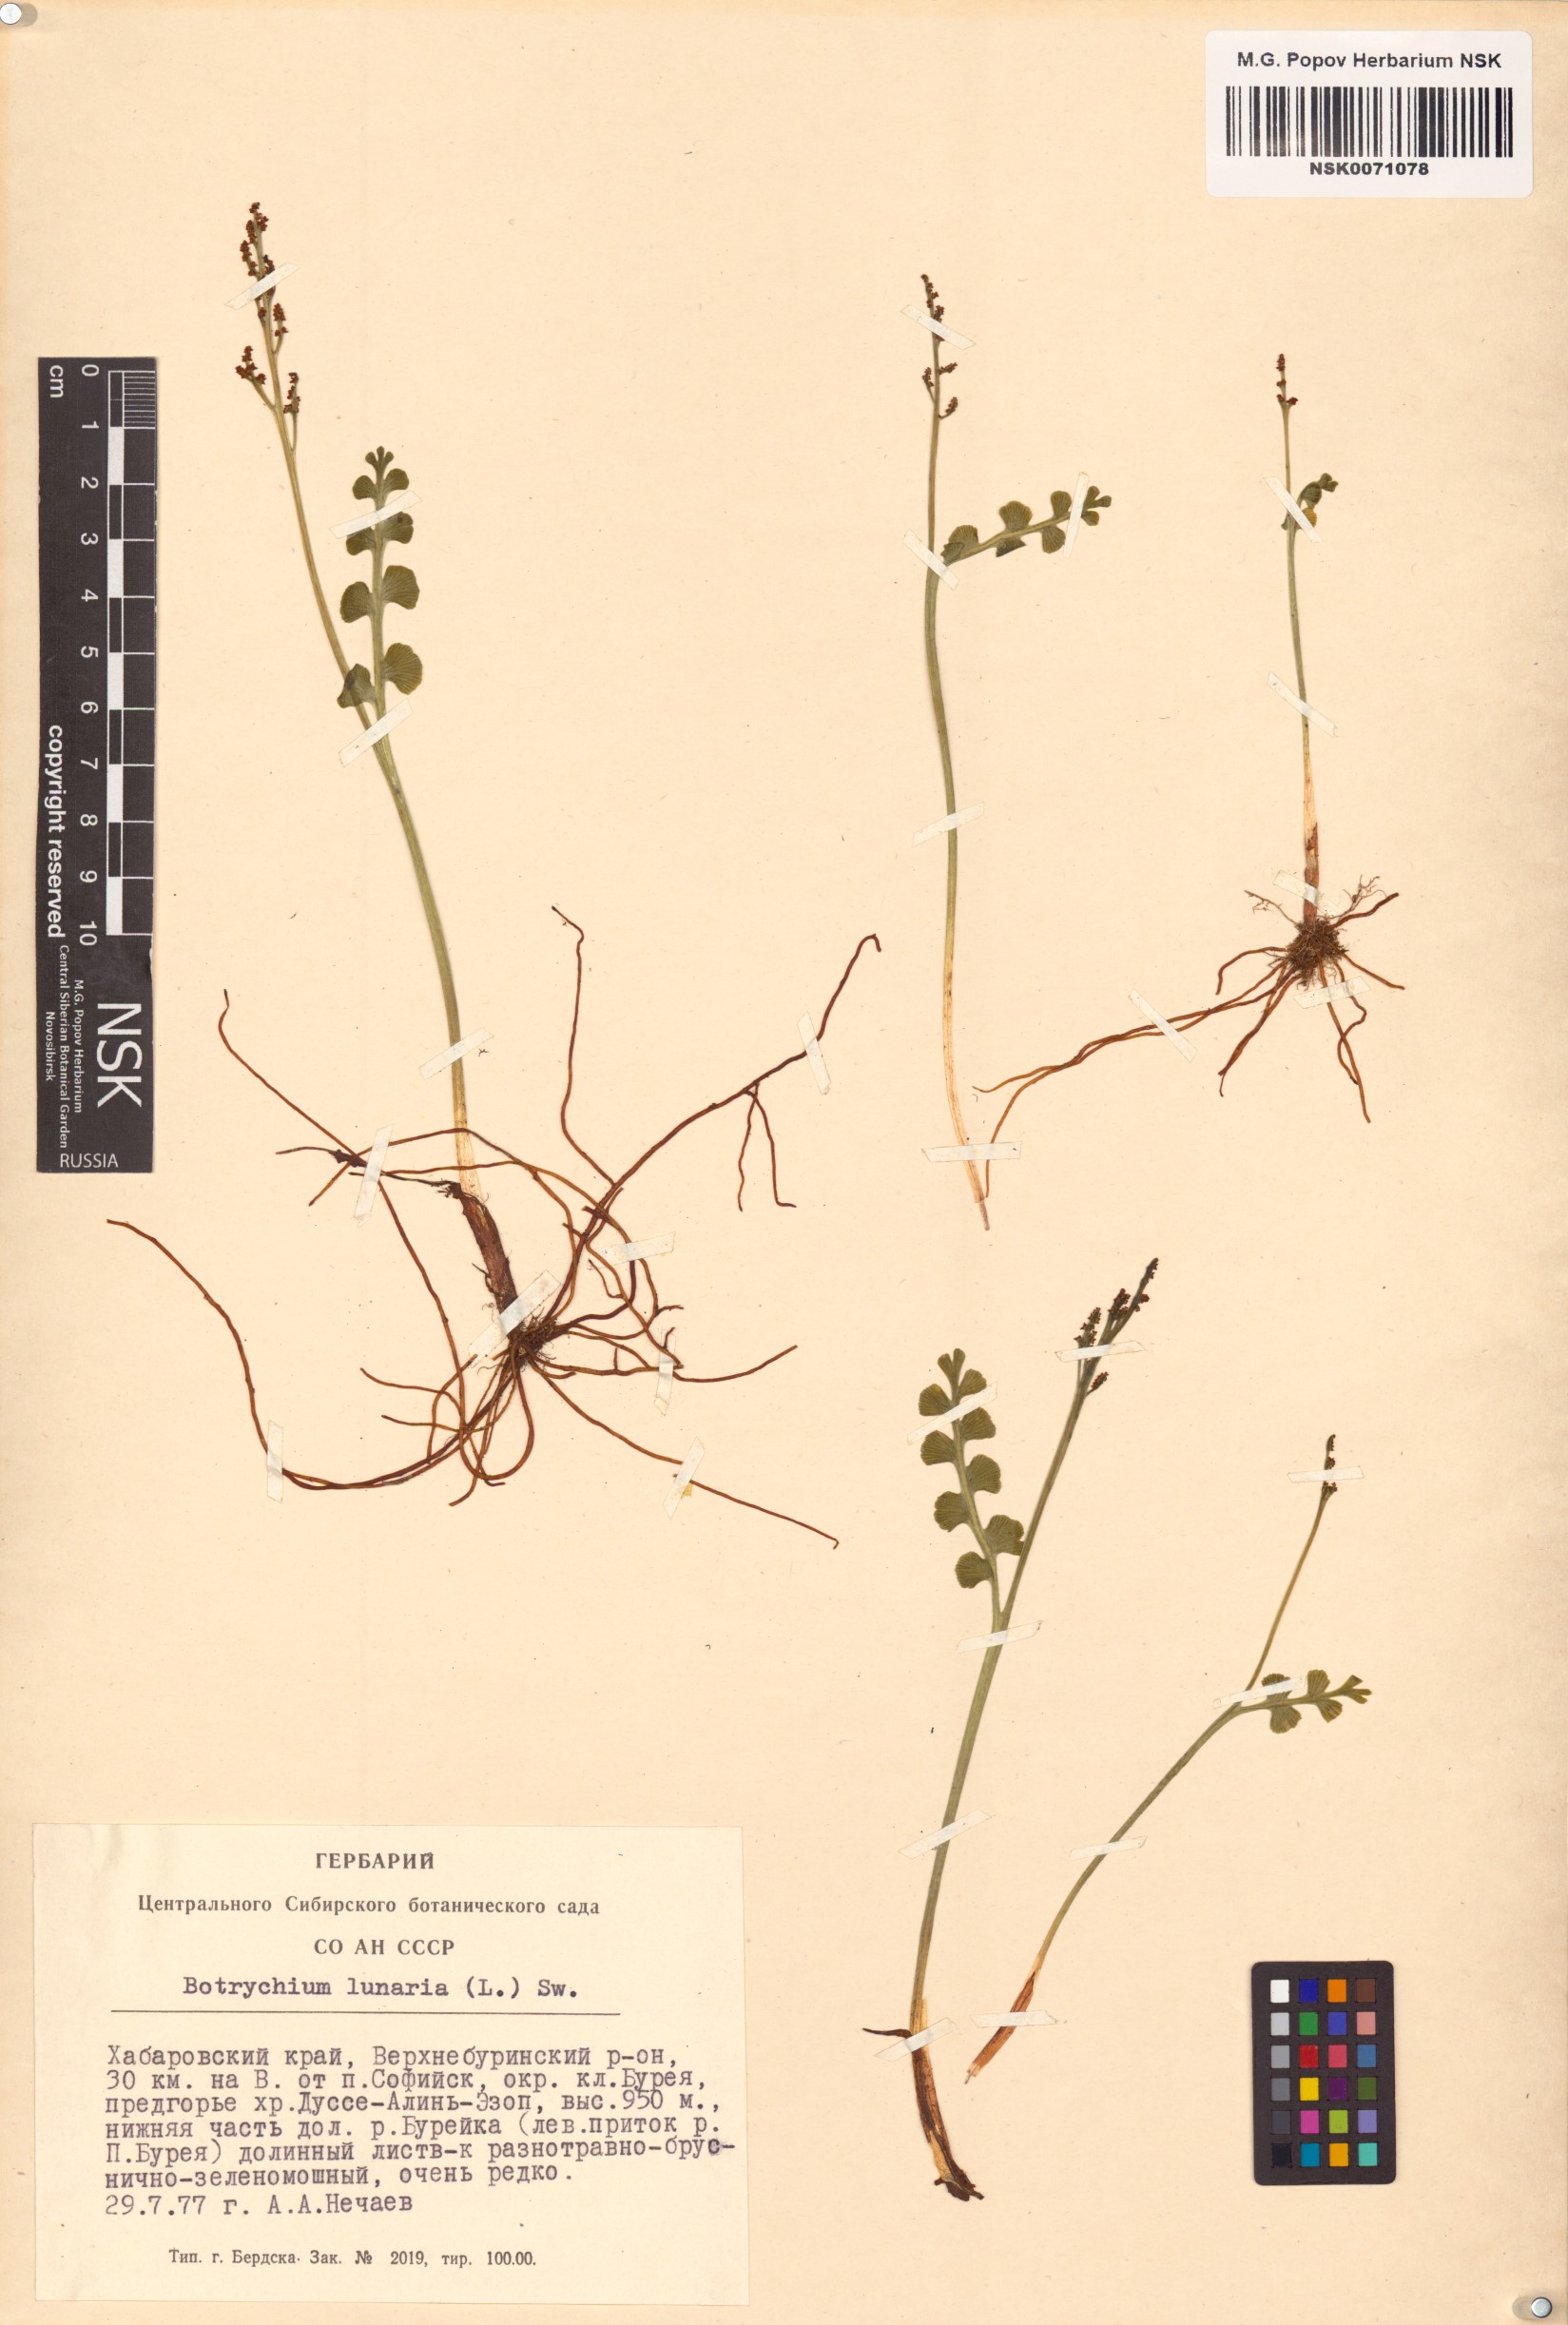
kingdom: Plantae
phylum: Tracheophyta
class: Polypodiopsida
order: Ophioglossales
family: Ophioglossaceae
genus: Botrychium
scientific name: Botrychium lunaria
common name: Moonwort
